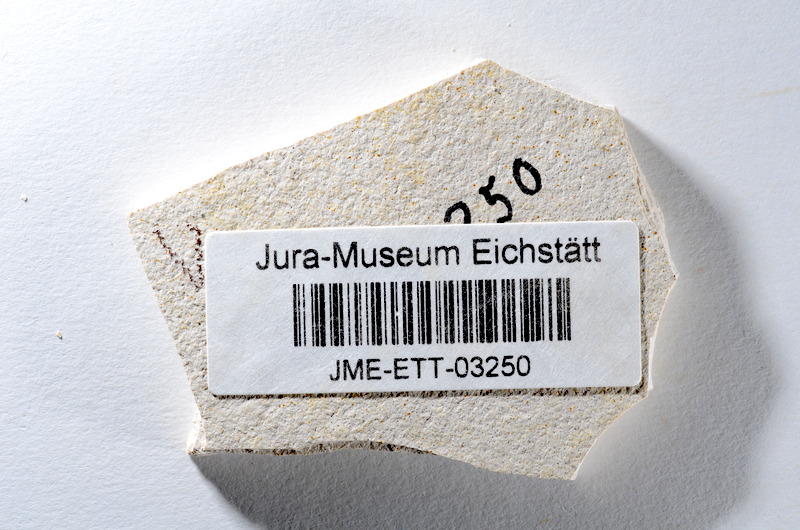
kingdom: Animalia
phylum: Chordata
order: Salmoniformes
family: Orthogonikleithridae
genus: Orthogonikleithrus
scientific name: Orthogonikleithrus hoelli
